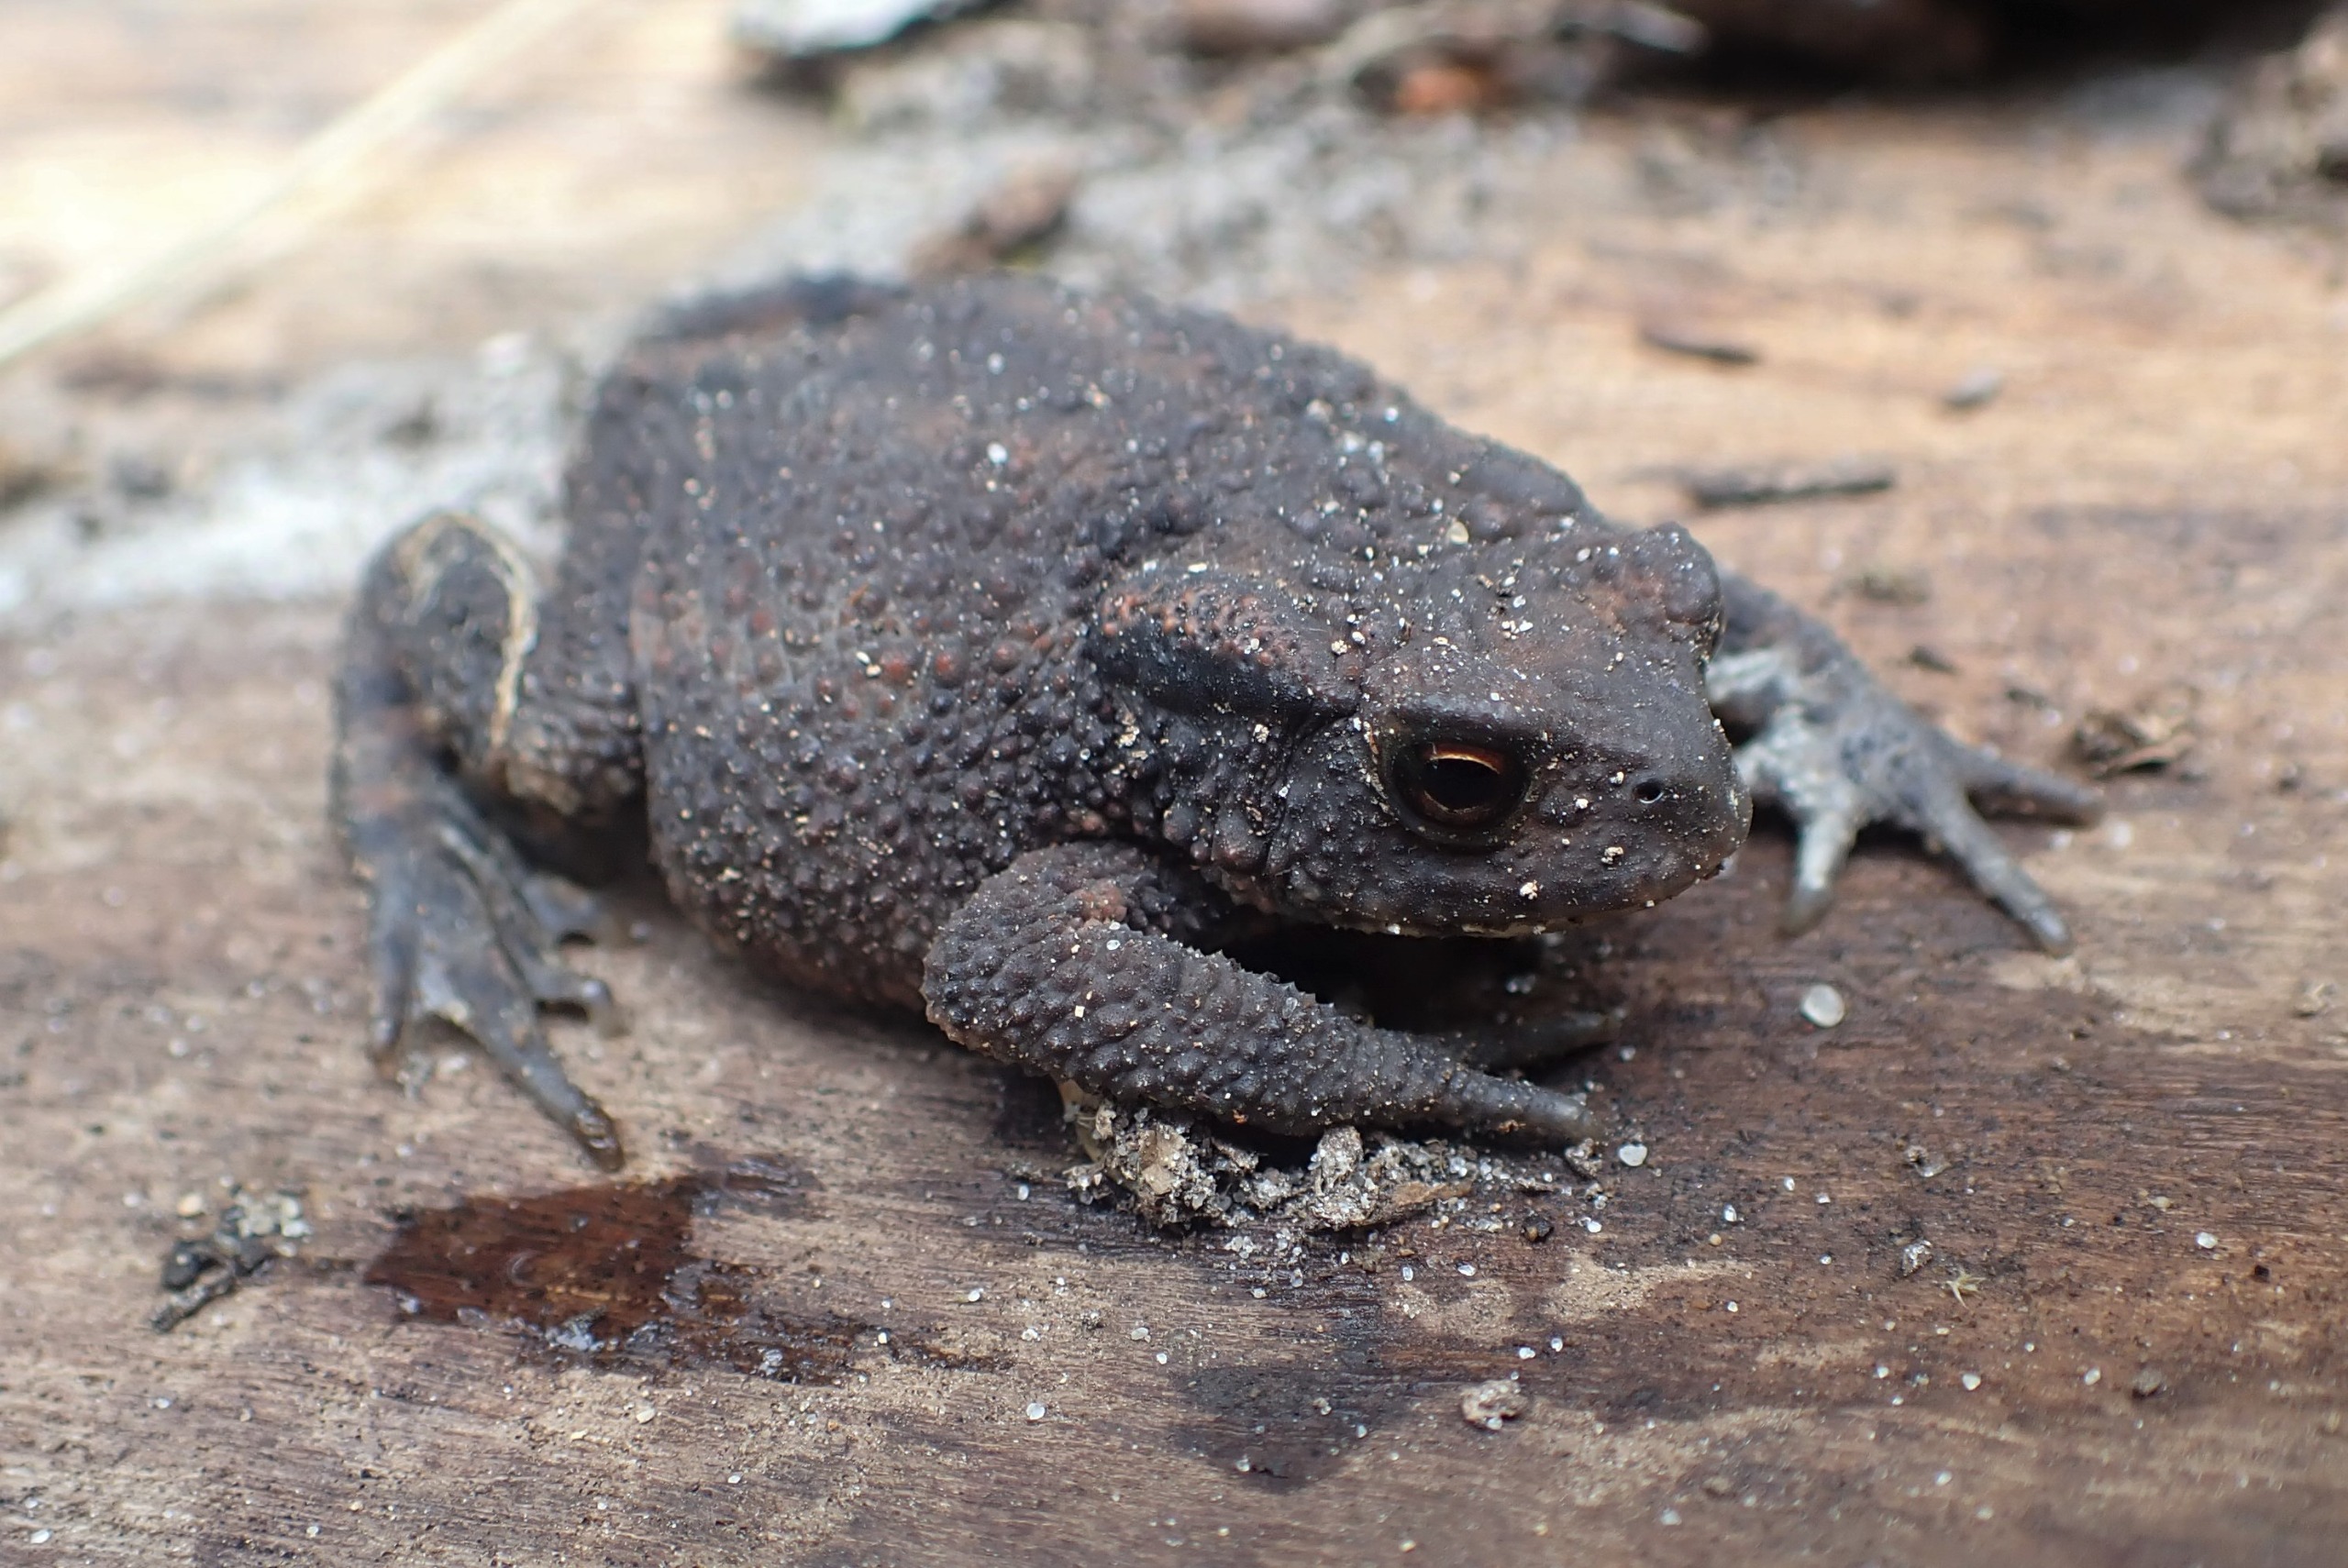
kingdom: Animalia
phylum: Chordata
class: Amphibia
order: Anura
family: Bufonidae
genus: Bufo
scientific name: Bufo bufo
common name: Skrubtudse
